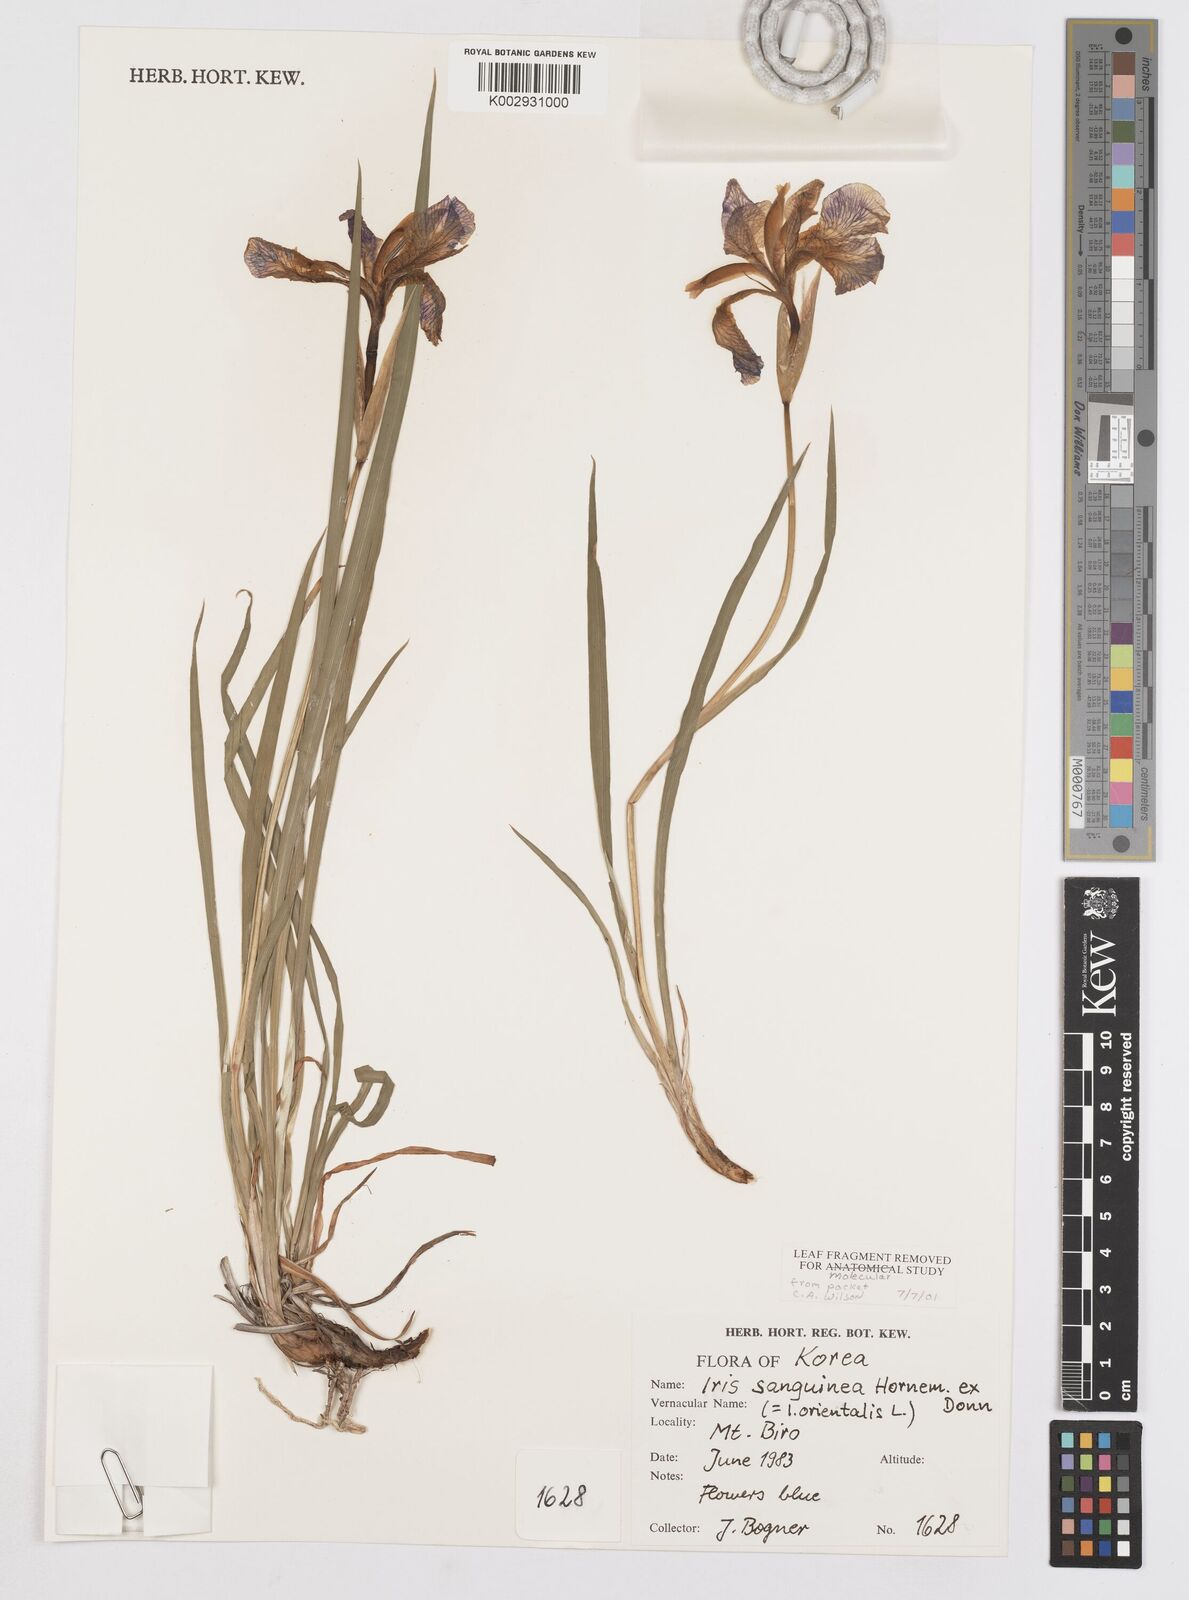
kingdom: Plantae
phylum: Tracheophyta
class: Liliopsida
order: Asparagales
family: Iridaceae
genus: Iris
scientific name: Iris sanguinea
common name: Blood iris
